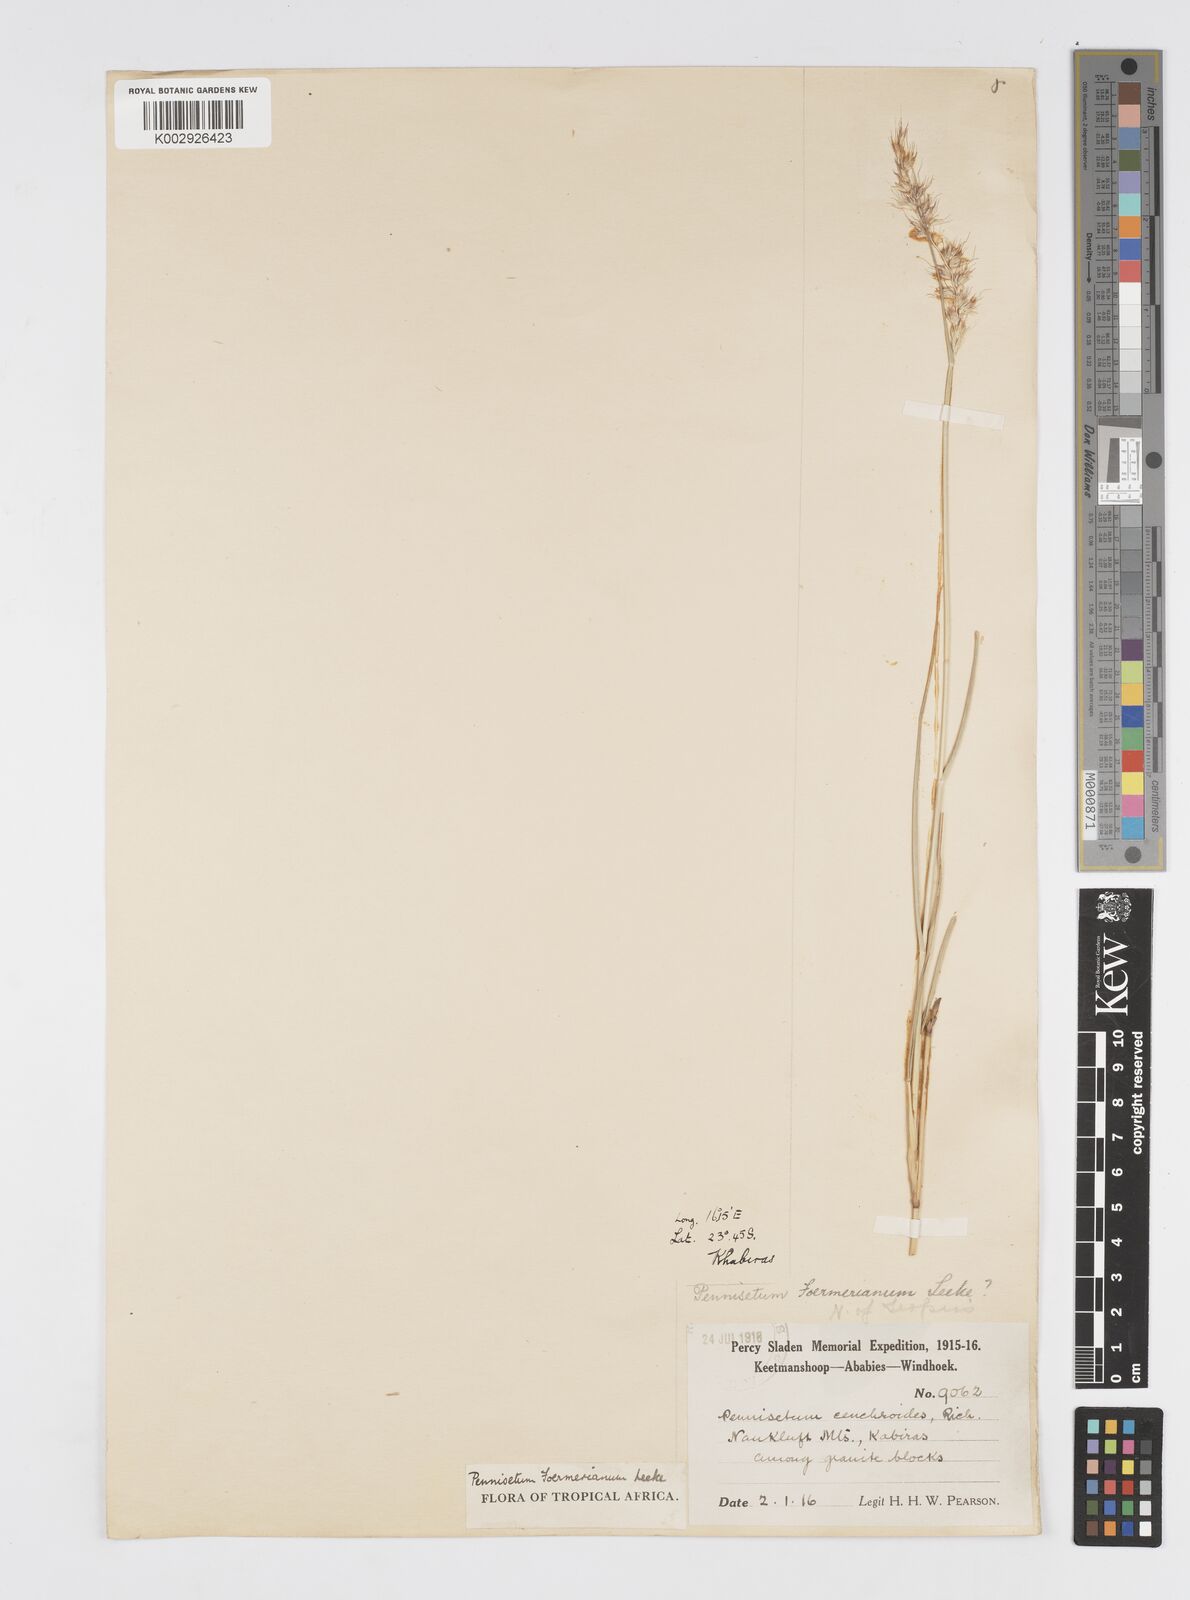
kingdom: Plantae
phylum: Tracheophyta
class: Liliopsida
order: Poales
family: Poaceae
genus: Cenchrus
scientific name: Cenchrus foermerianus
